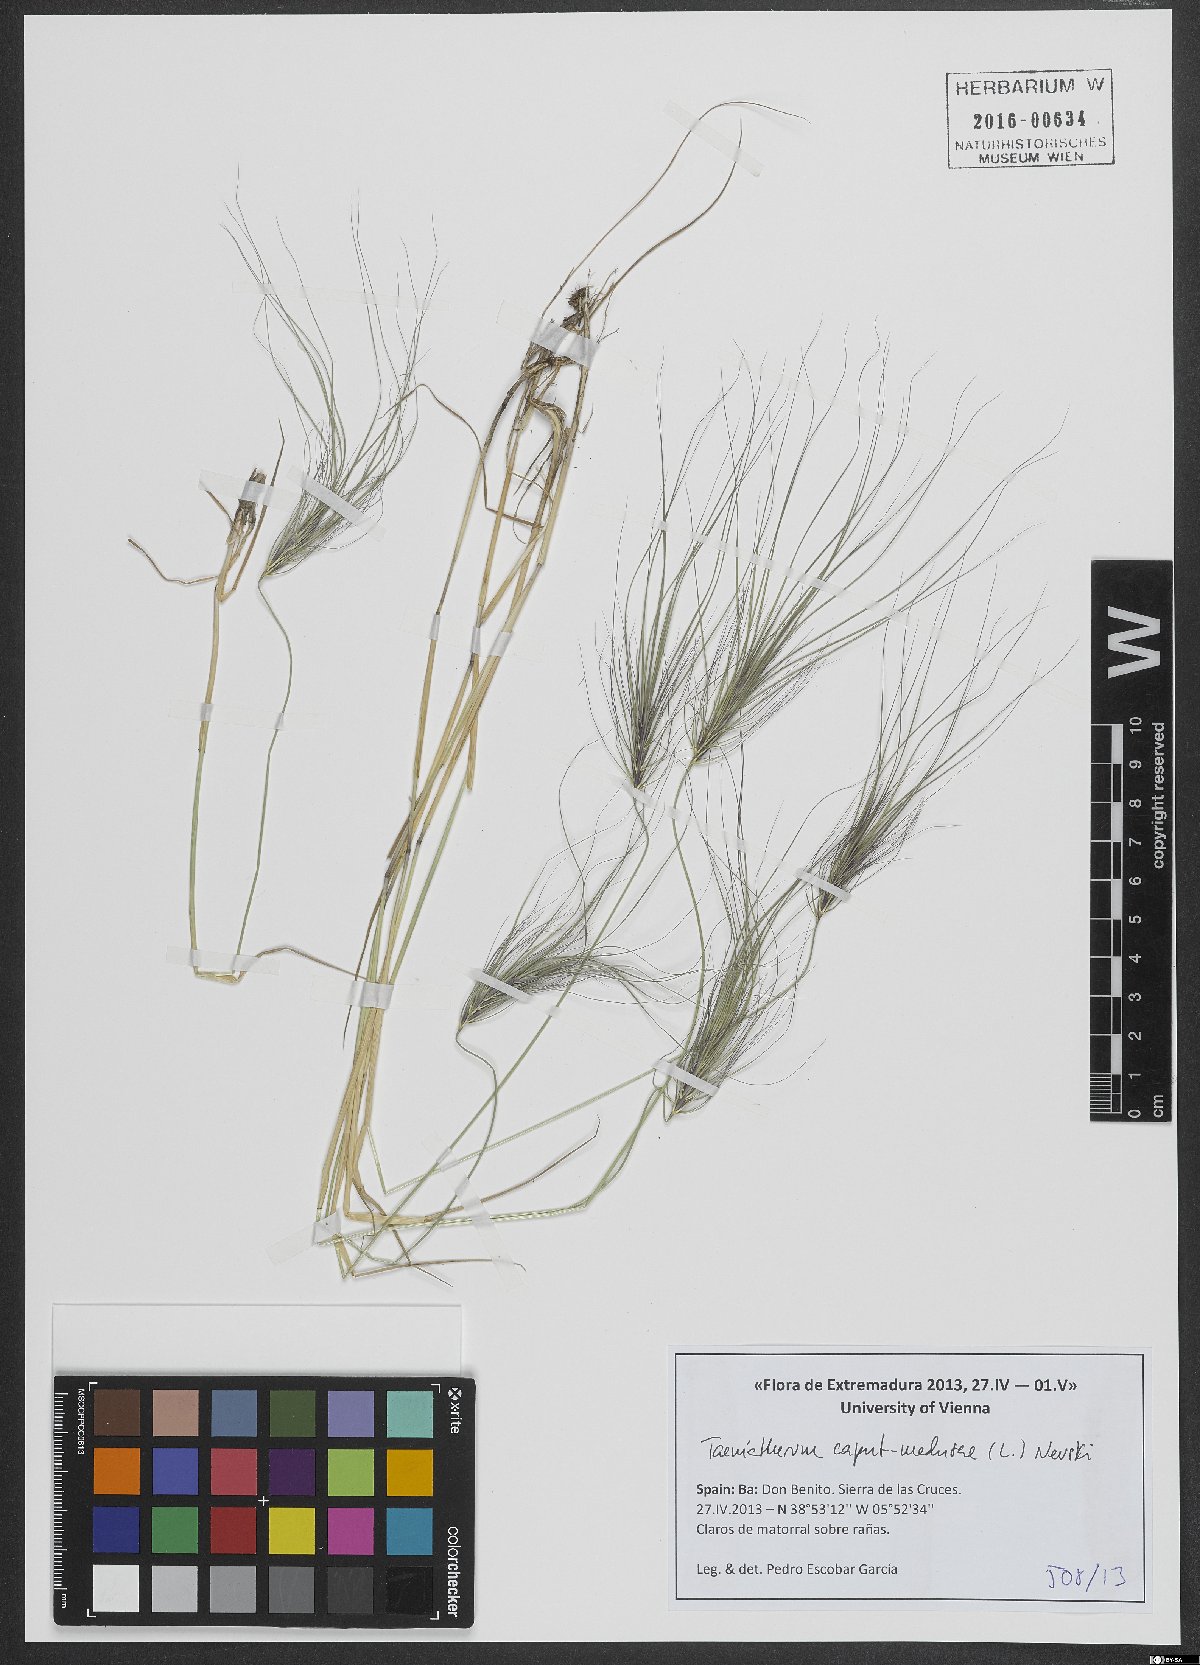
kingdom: Plantae
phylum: Tracheophyta
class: Liliopsida
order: Poales
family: Poaceae
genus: Taeniatherum
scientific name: Taeniatherum caput-medusae
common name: Medusahead
